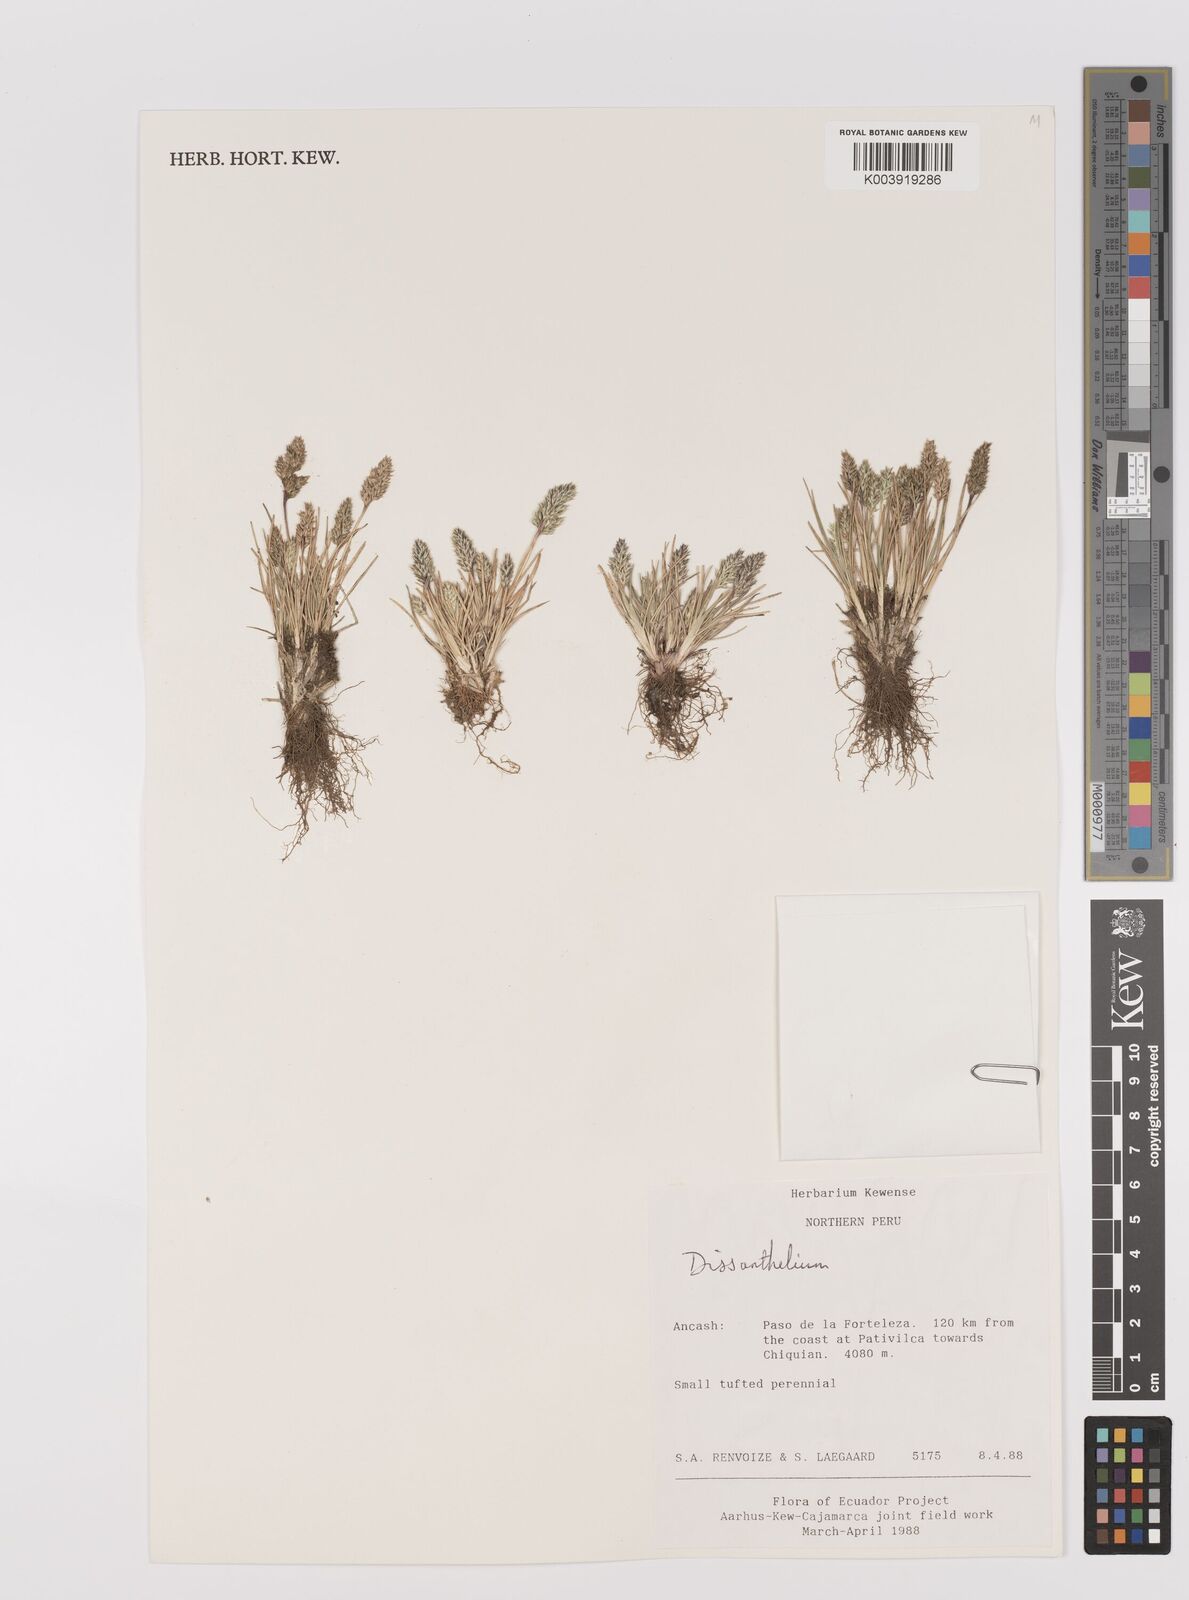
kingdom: Plantae
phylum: Tracheophyta
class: Liliopsida
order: Poales
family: Poaceae
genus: Poa
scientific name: Poa macusaniensis
